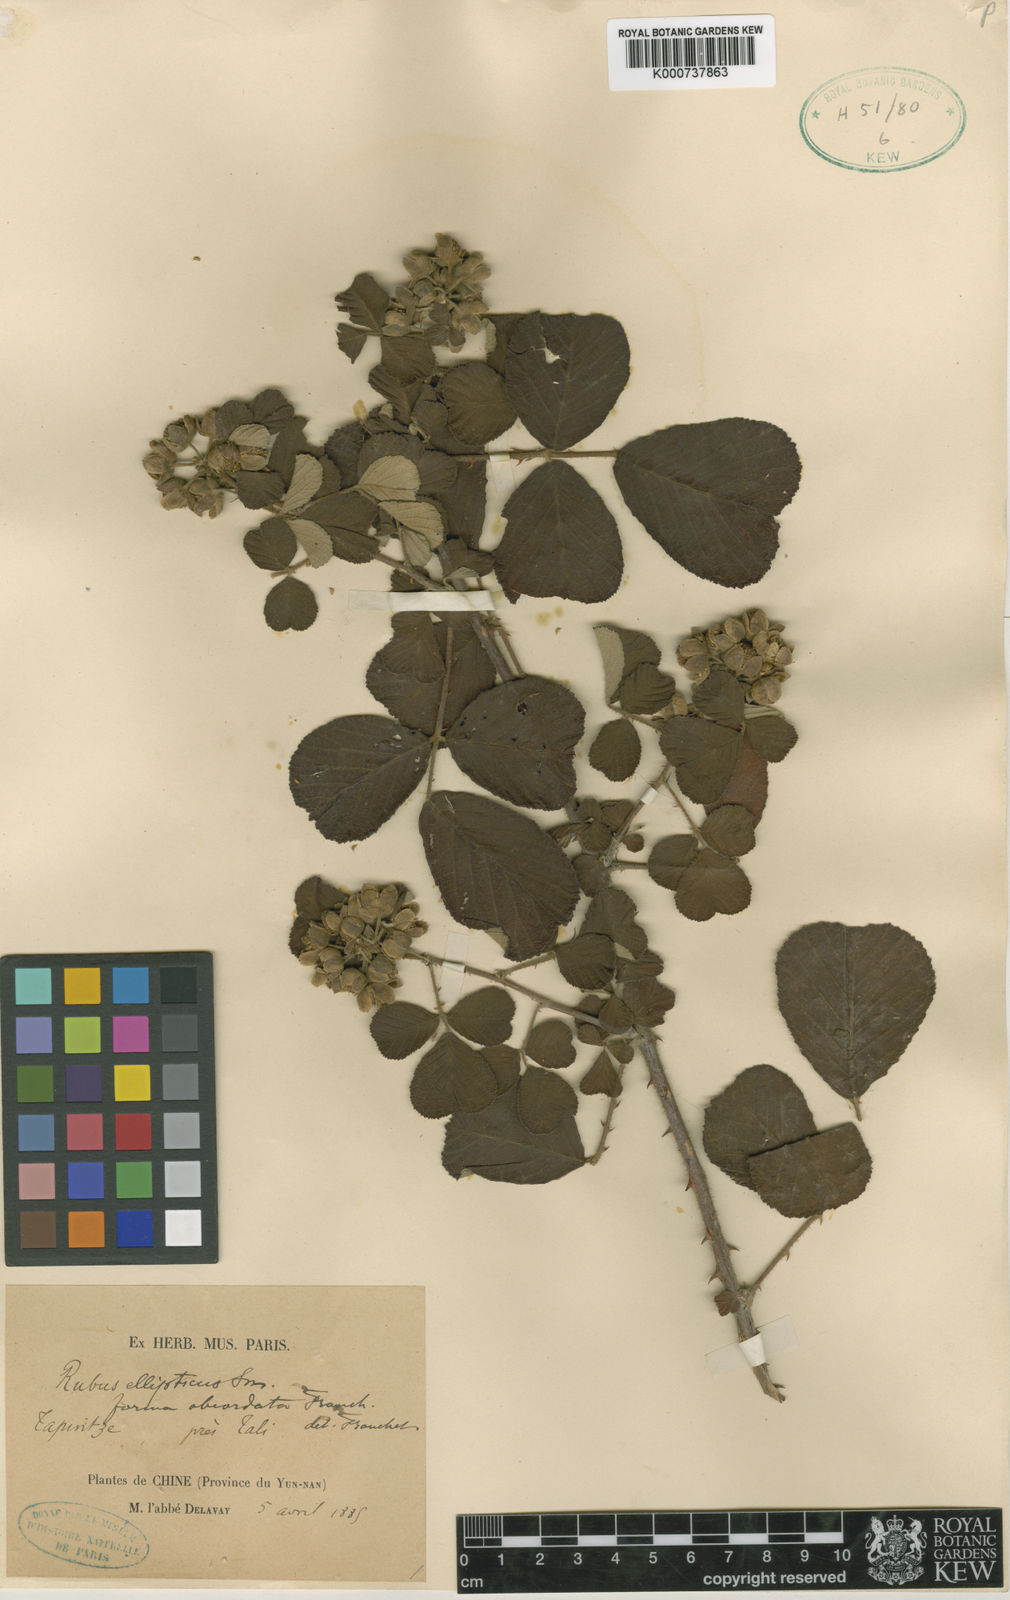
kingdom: Plantae
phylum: Tracheophyta
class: Magnoliopsida
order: Rosales
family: Rosaceae
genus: Rubus
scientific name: Rubus
